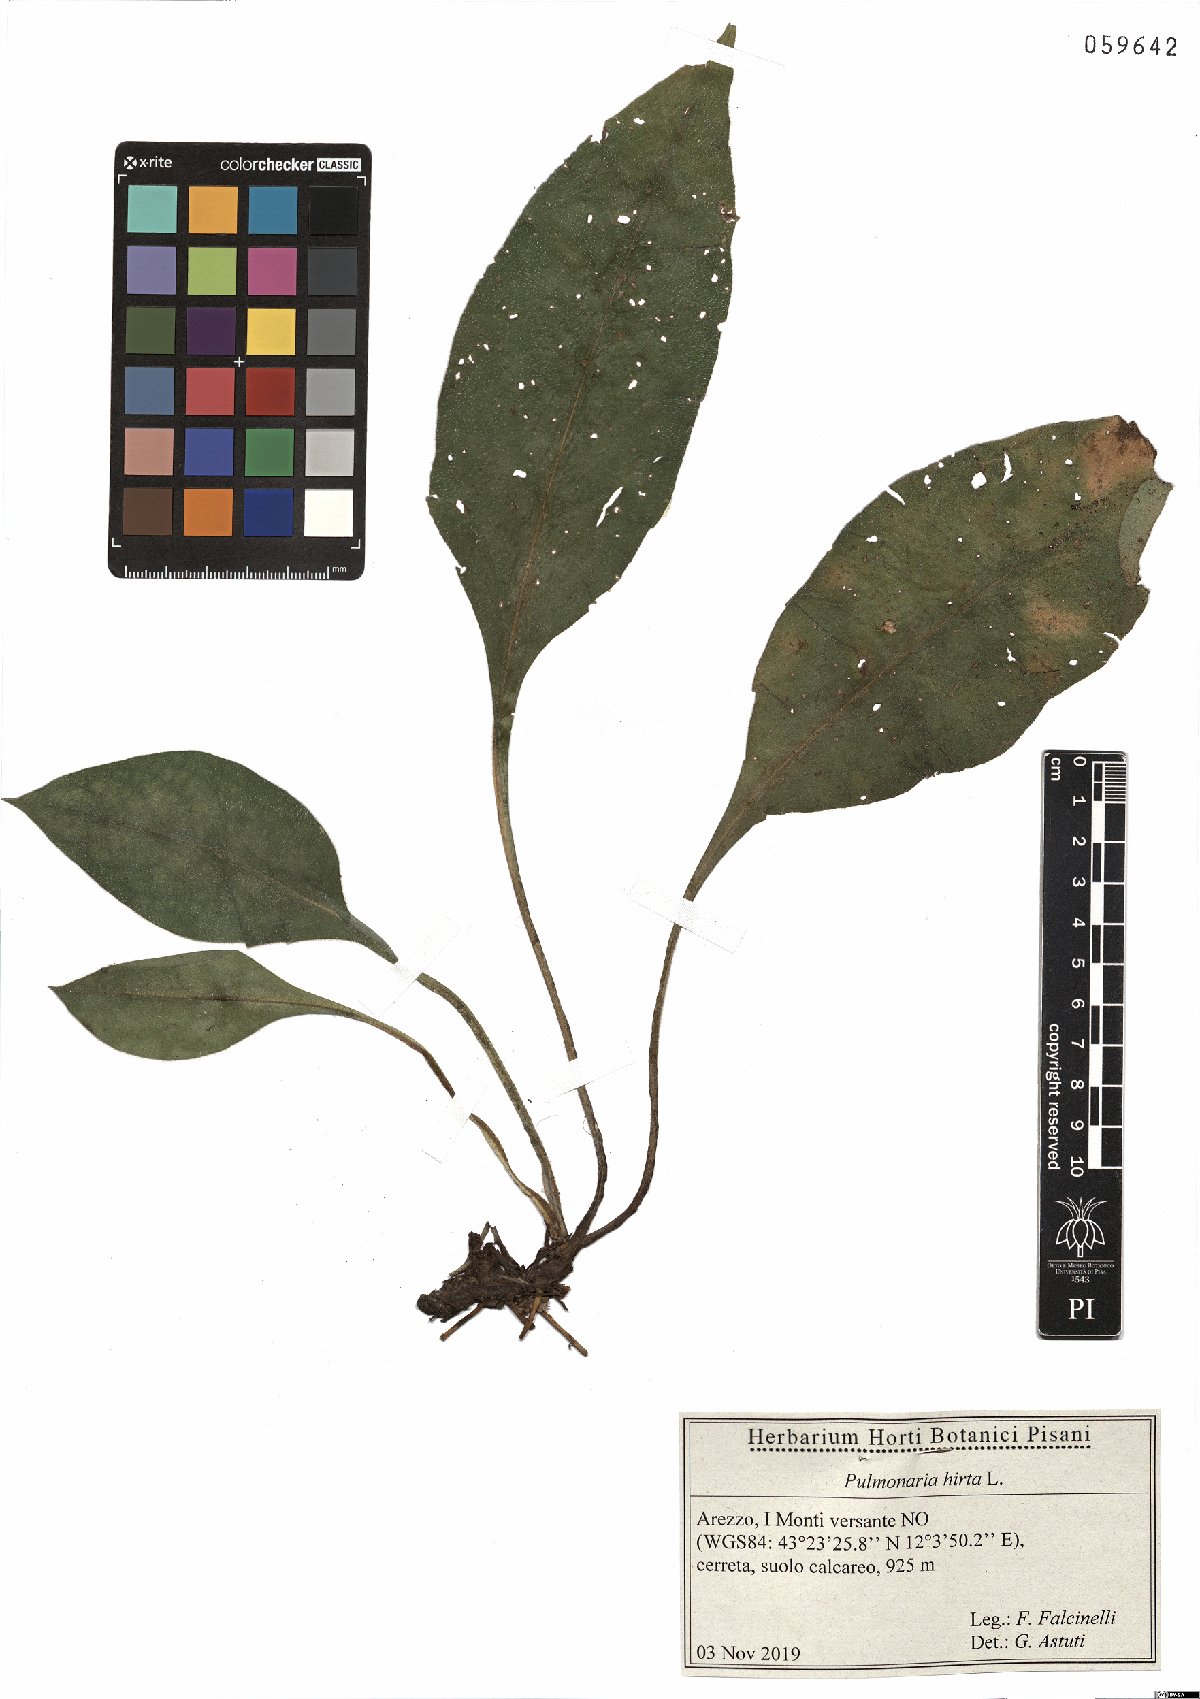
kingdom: Plantae
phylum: Tracheophyta
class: Magnoliopsida
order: Boraginales
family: Boraginaceae
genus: Pulmonaria
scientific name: Pulmonaria hirta
